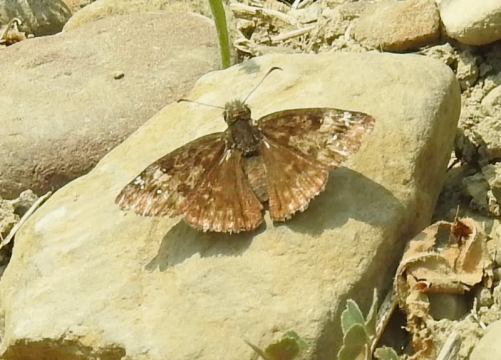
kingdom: Animalia
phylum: Arthropoda
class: Insecta
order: Lepidoptera
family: Hesperiidae
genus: Gesta
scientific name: Gesta
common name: Wild Indigo Duskywing
